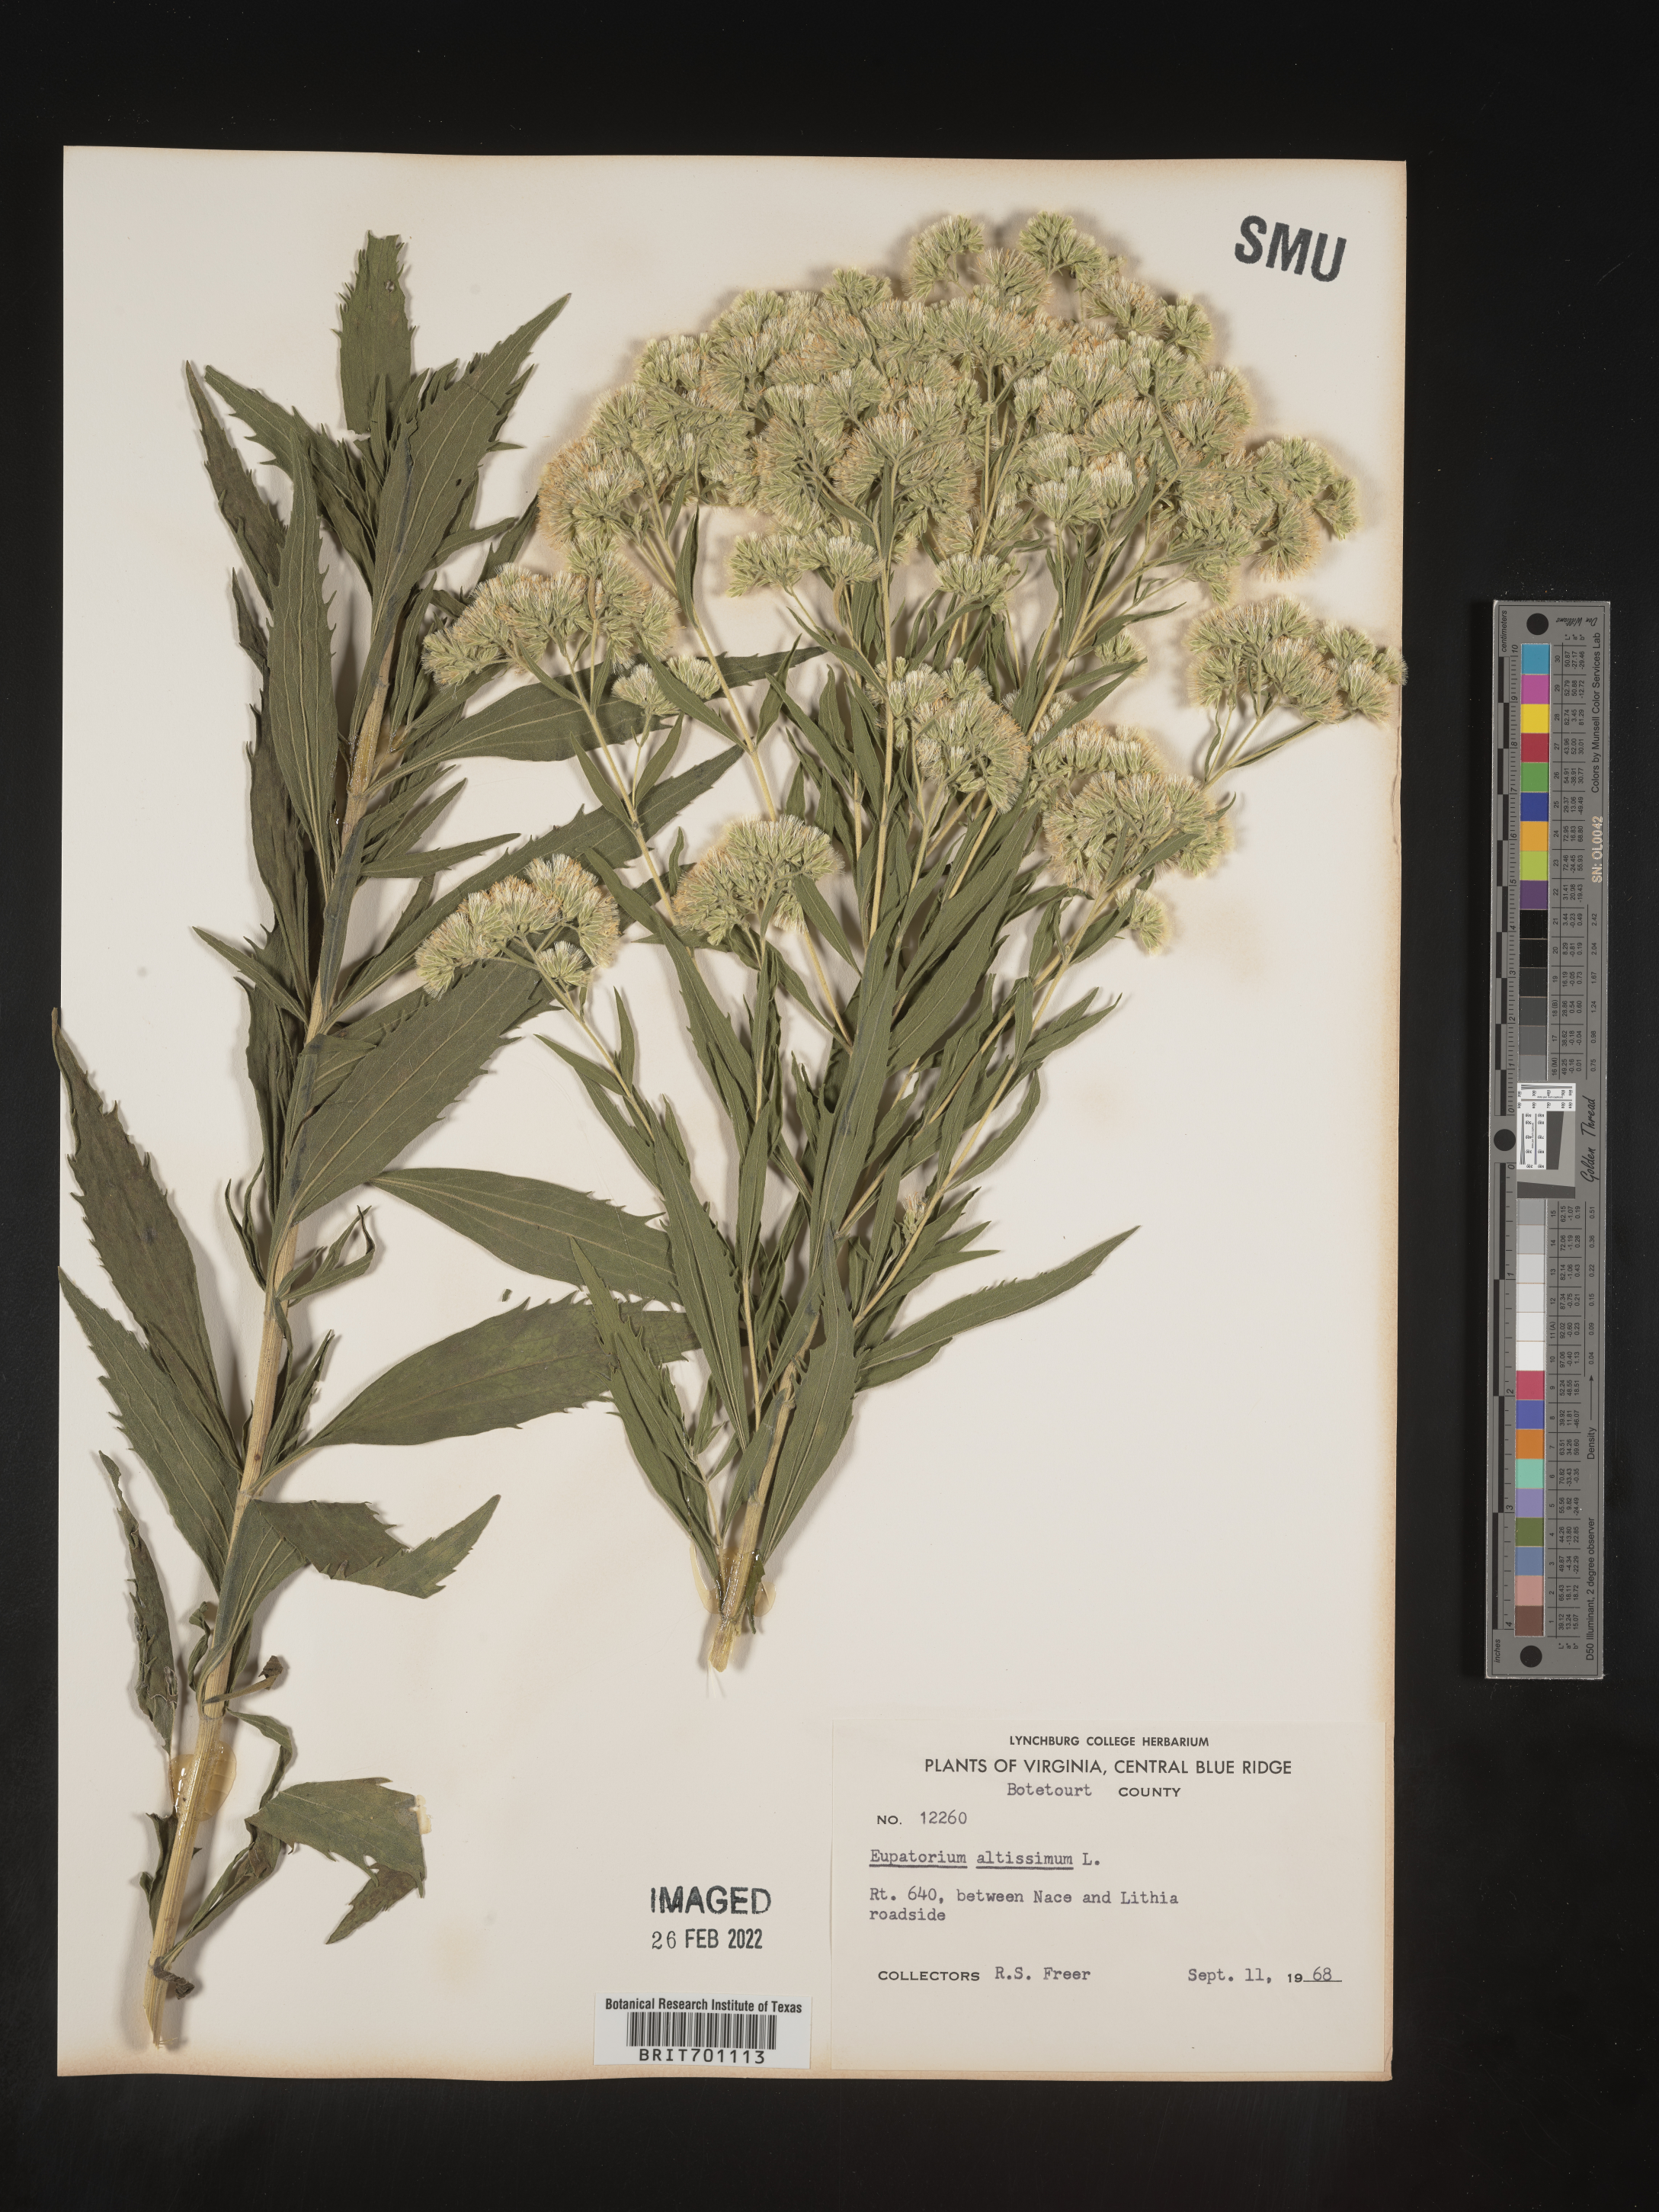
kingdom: Plantae
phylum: Tracheophyta
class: Magnoliopsida
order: Asterales
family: Asteraceae
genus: Eupatorium
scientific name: Eupatorium altissimum
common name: Tall thoroughwort
